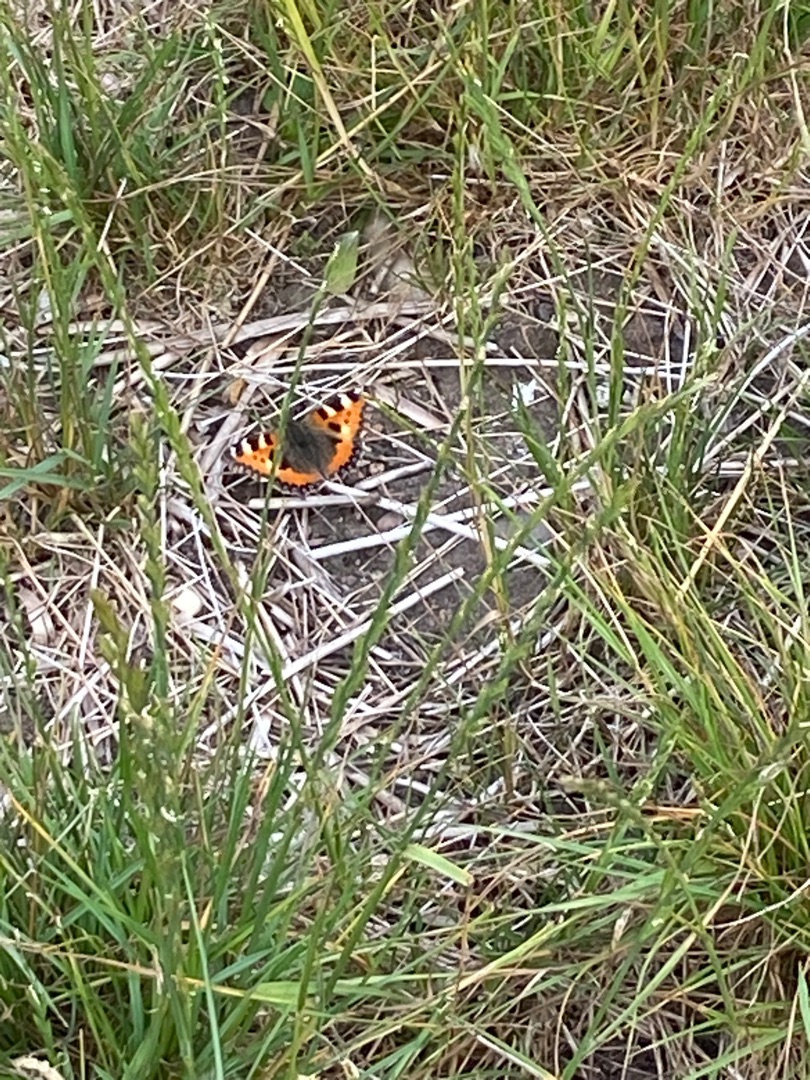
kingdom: Animalia
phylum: Arthropoda
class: Insecta
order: Lepidoptera
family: Nymphalidae
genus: Aglais
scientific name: Aglais urticae
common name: Nældens takvinge
